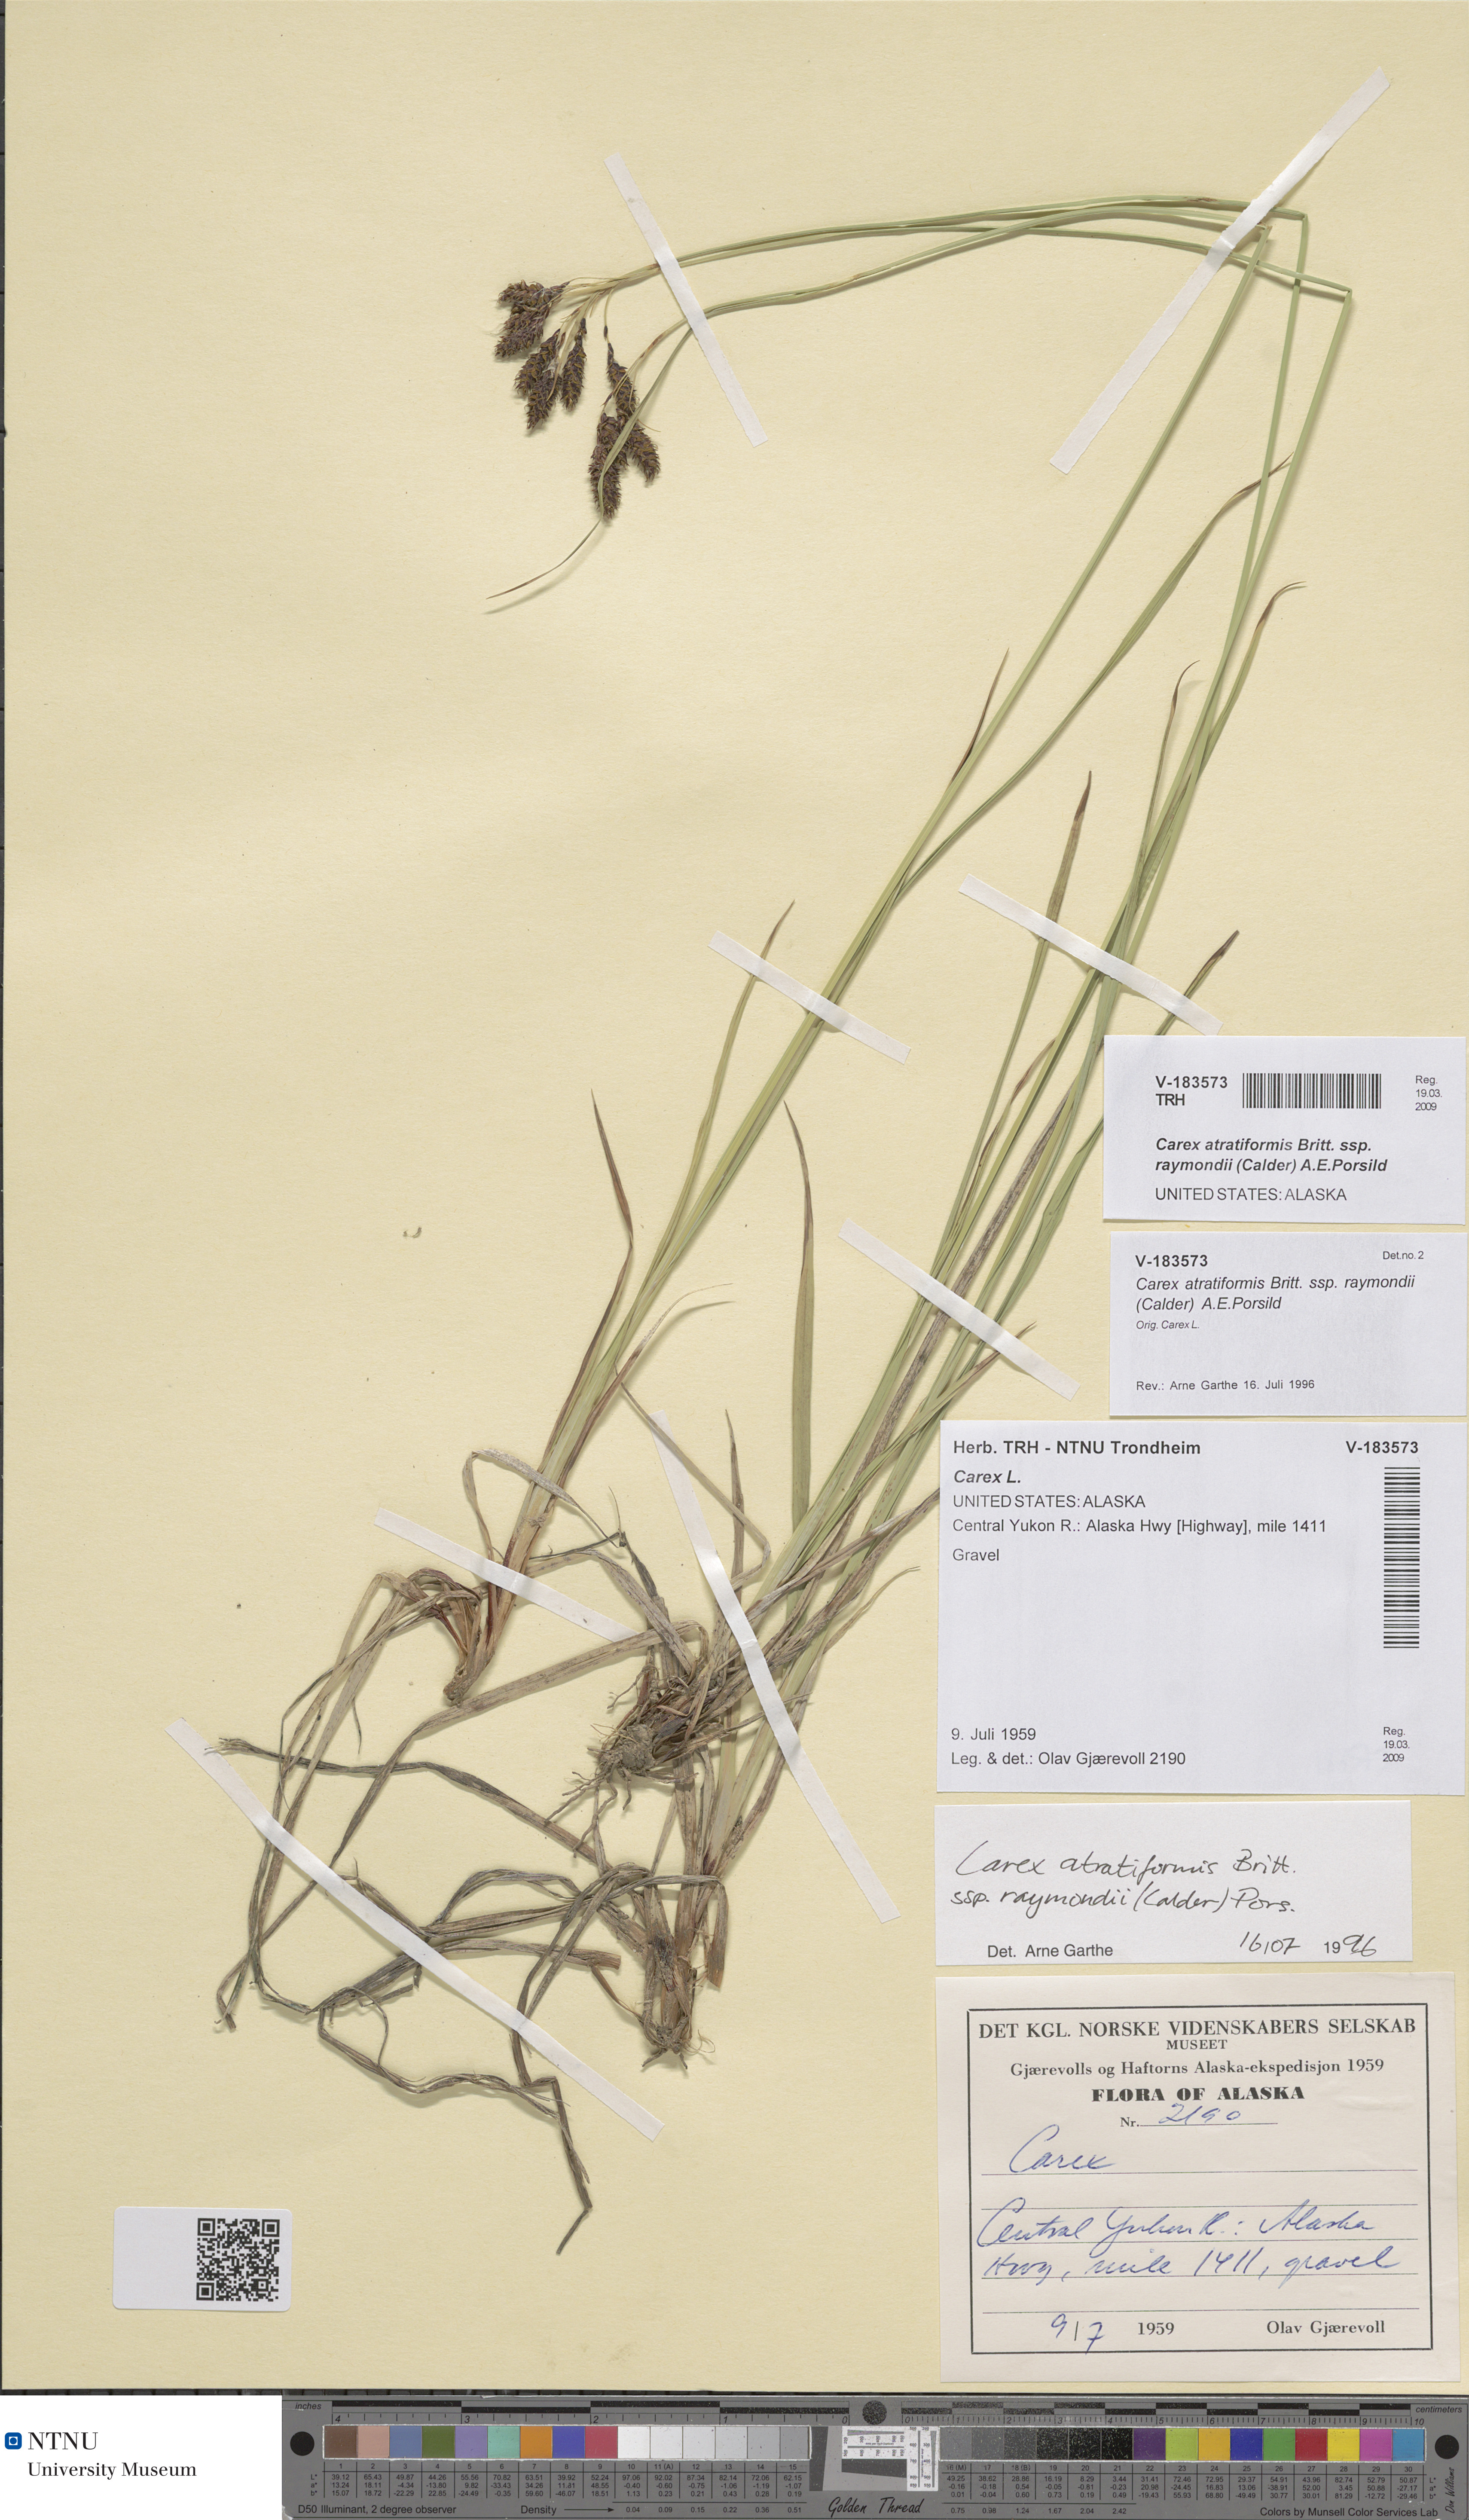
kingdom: Plantae
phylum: Tracheophyta
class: Liliopsida
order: Poales
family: Cyperaceae
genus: Carex
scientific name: Carex atratiformis
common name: Black sedge
